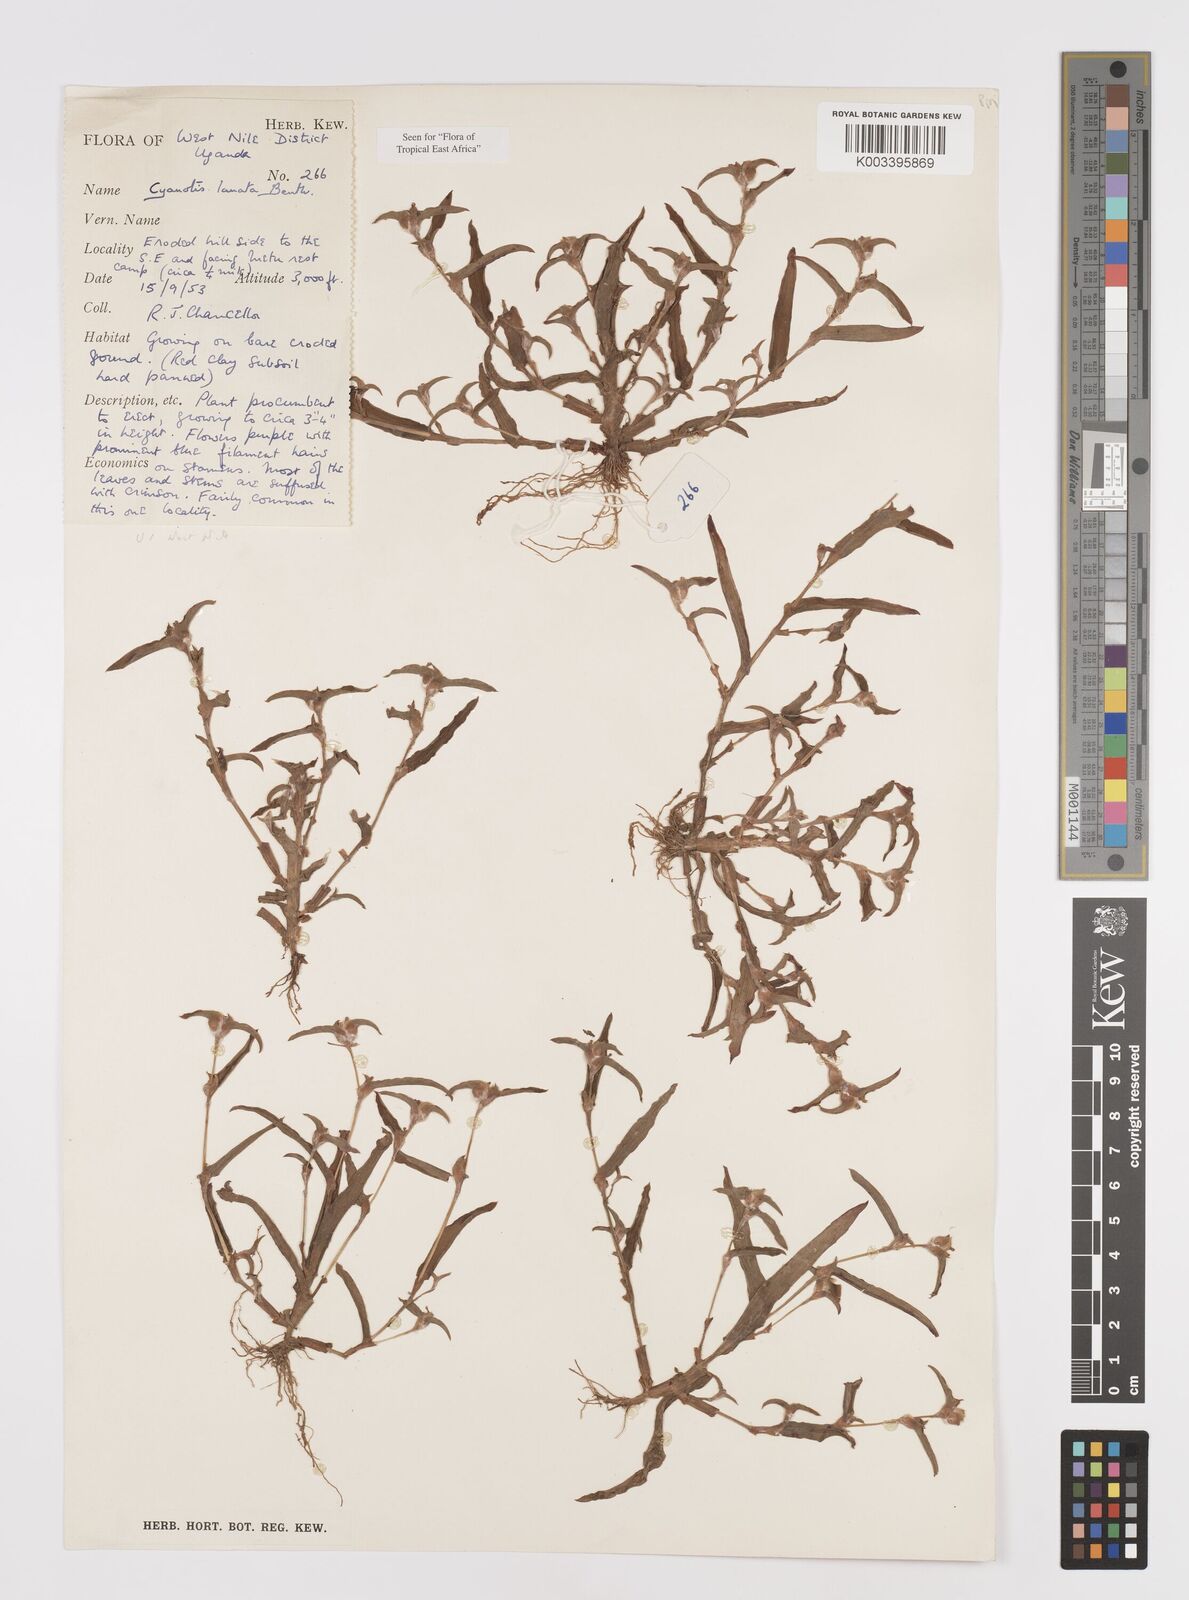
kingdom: Plantae
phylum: Tracheophyta
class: Liliopsida
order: Commelinales
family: Commelinaceae
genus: Cyanotis
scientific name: Cyanotis lanata
